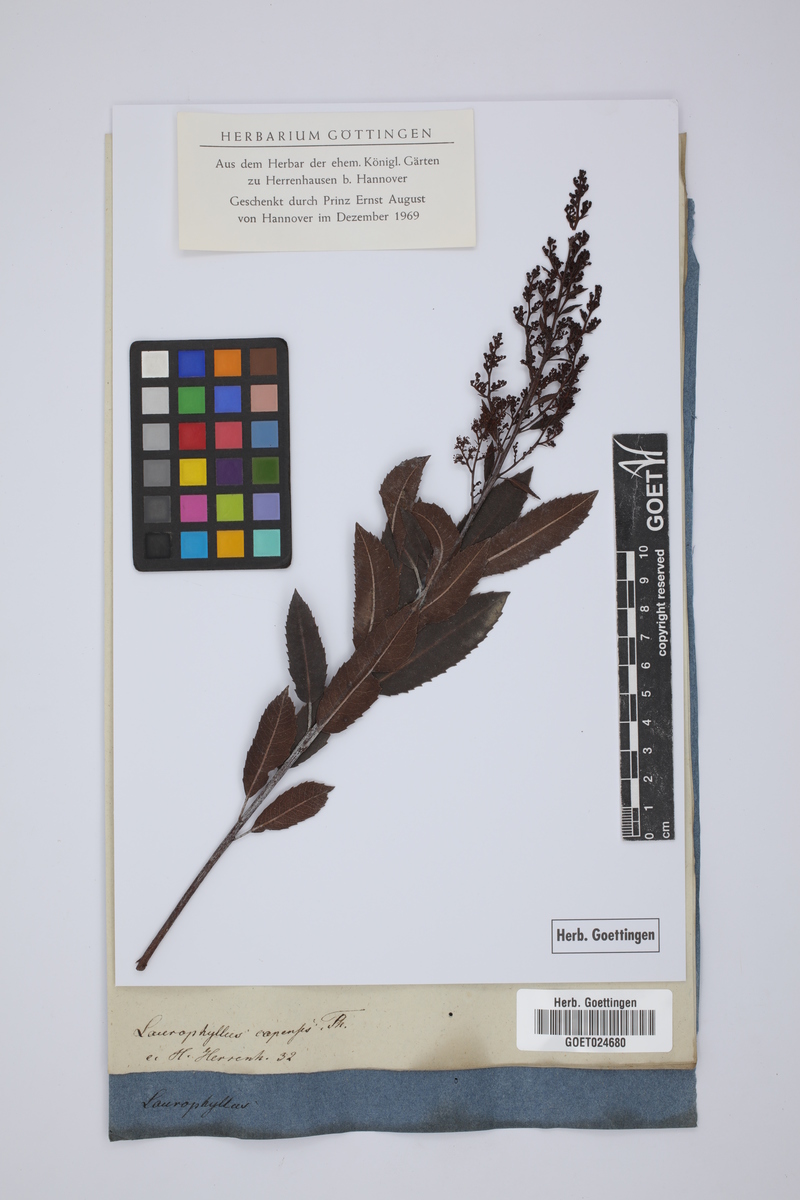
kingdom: Plantae
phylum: Tracheophyta
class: Magnoliopsida
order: Sapindales
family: Anacardiaceae
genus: Laurophyllus
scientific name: Laurophyllus capensis
